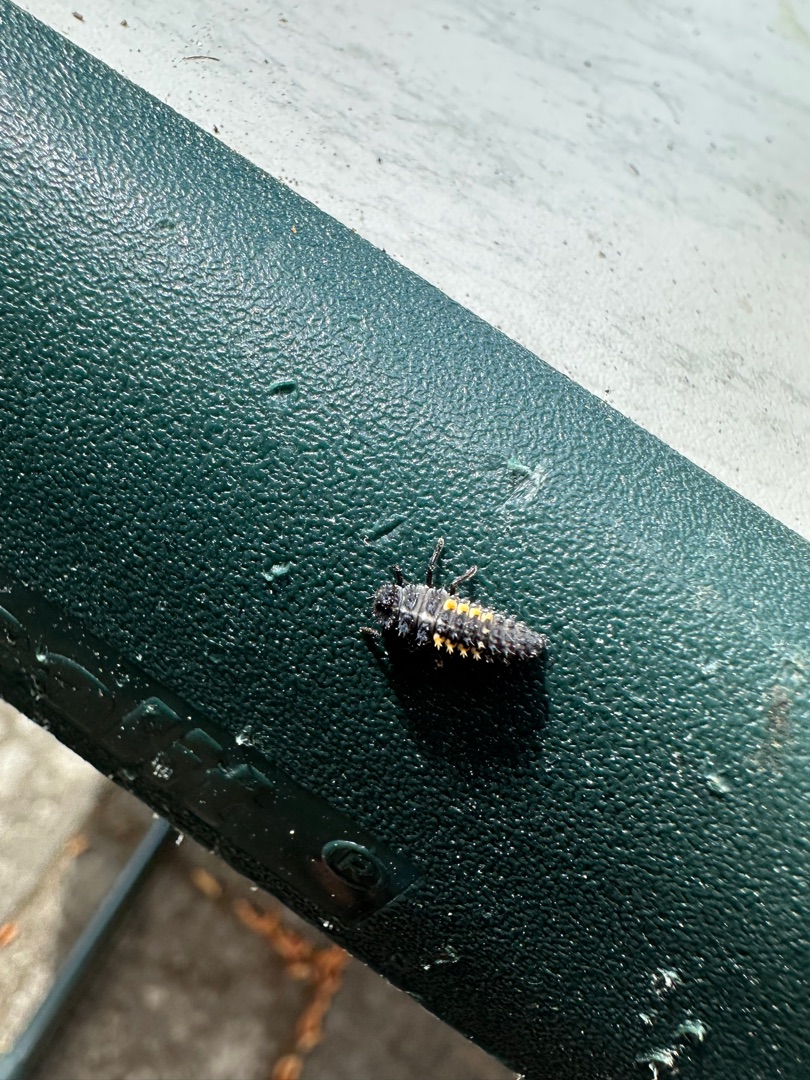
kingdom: Animalia
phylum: Arthropoda
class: Insecta
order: Coleoptera
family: Coccinellidae
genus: Harmonia
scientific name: Harmonia axyridis
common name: Harlekinmariehøne
